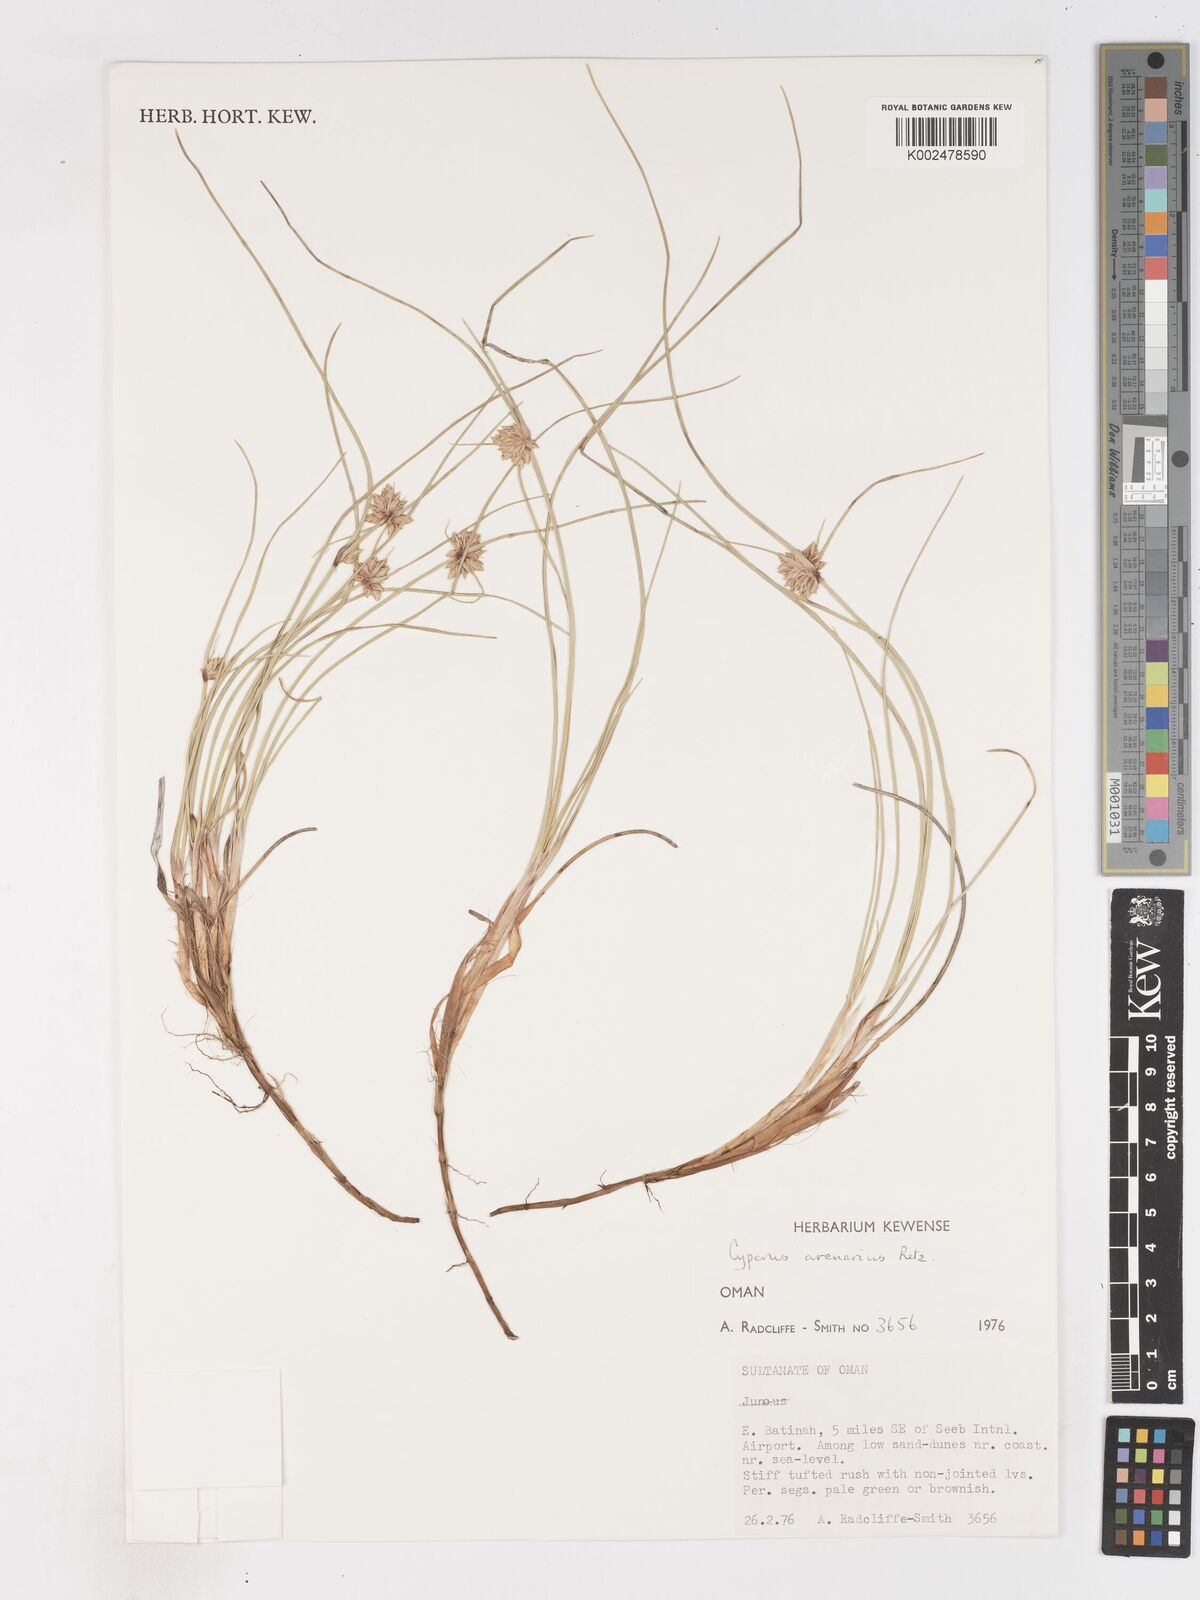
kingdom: Plantae
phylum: Tracheophyta
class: Liliopsida
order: Poales
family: Cyperaceae
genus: Cyperus
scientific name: Cyperus arenarius
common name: Dwarf sedge
